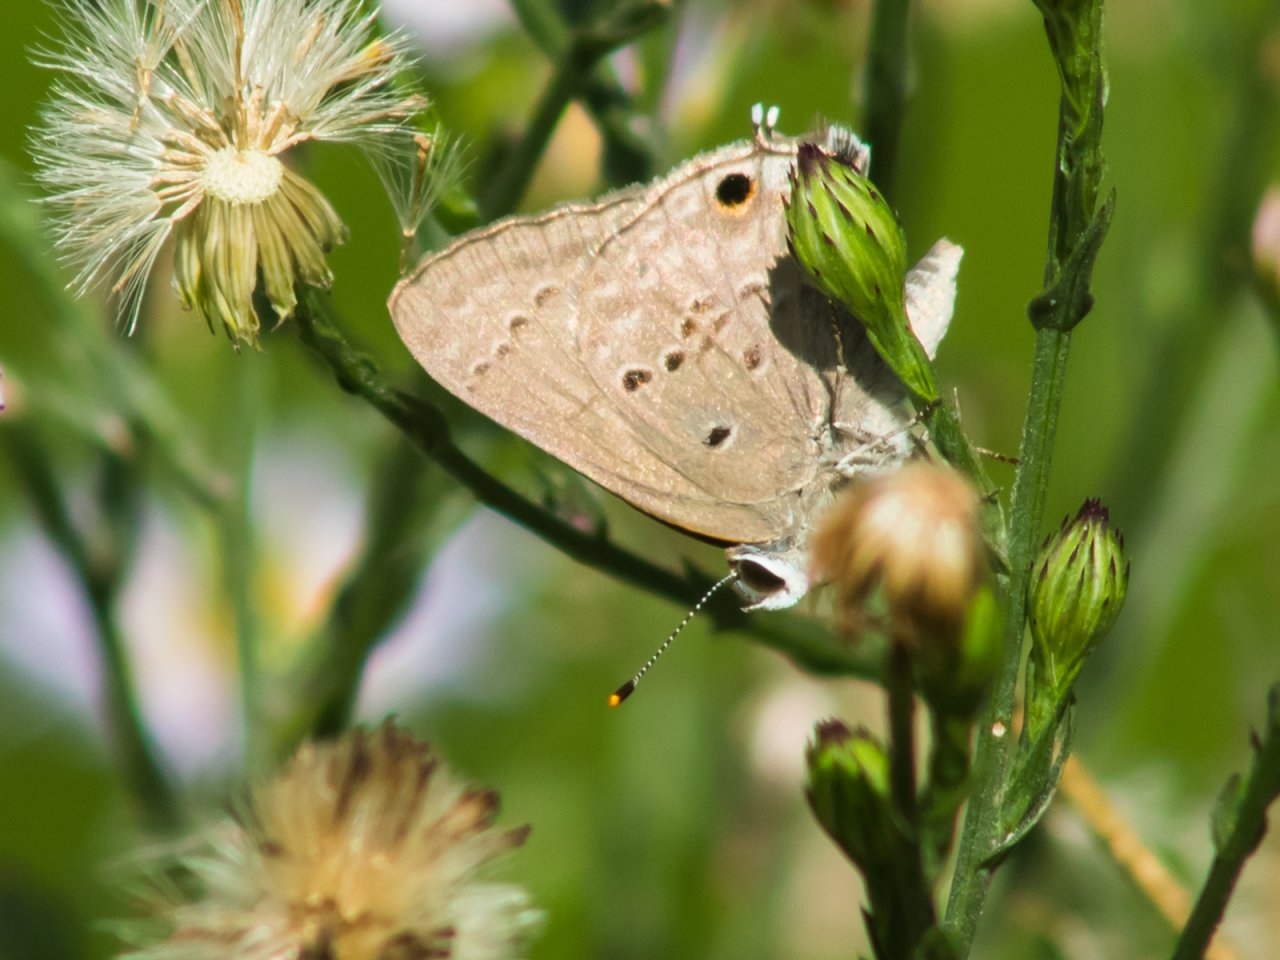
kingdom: Animalia
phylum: Arthropoda
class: Insecta
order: Lepidoptera
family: Lycaenidae
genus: Callicista
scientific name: Callicista columella
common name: Mallow Scrub-Hairstreak
